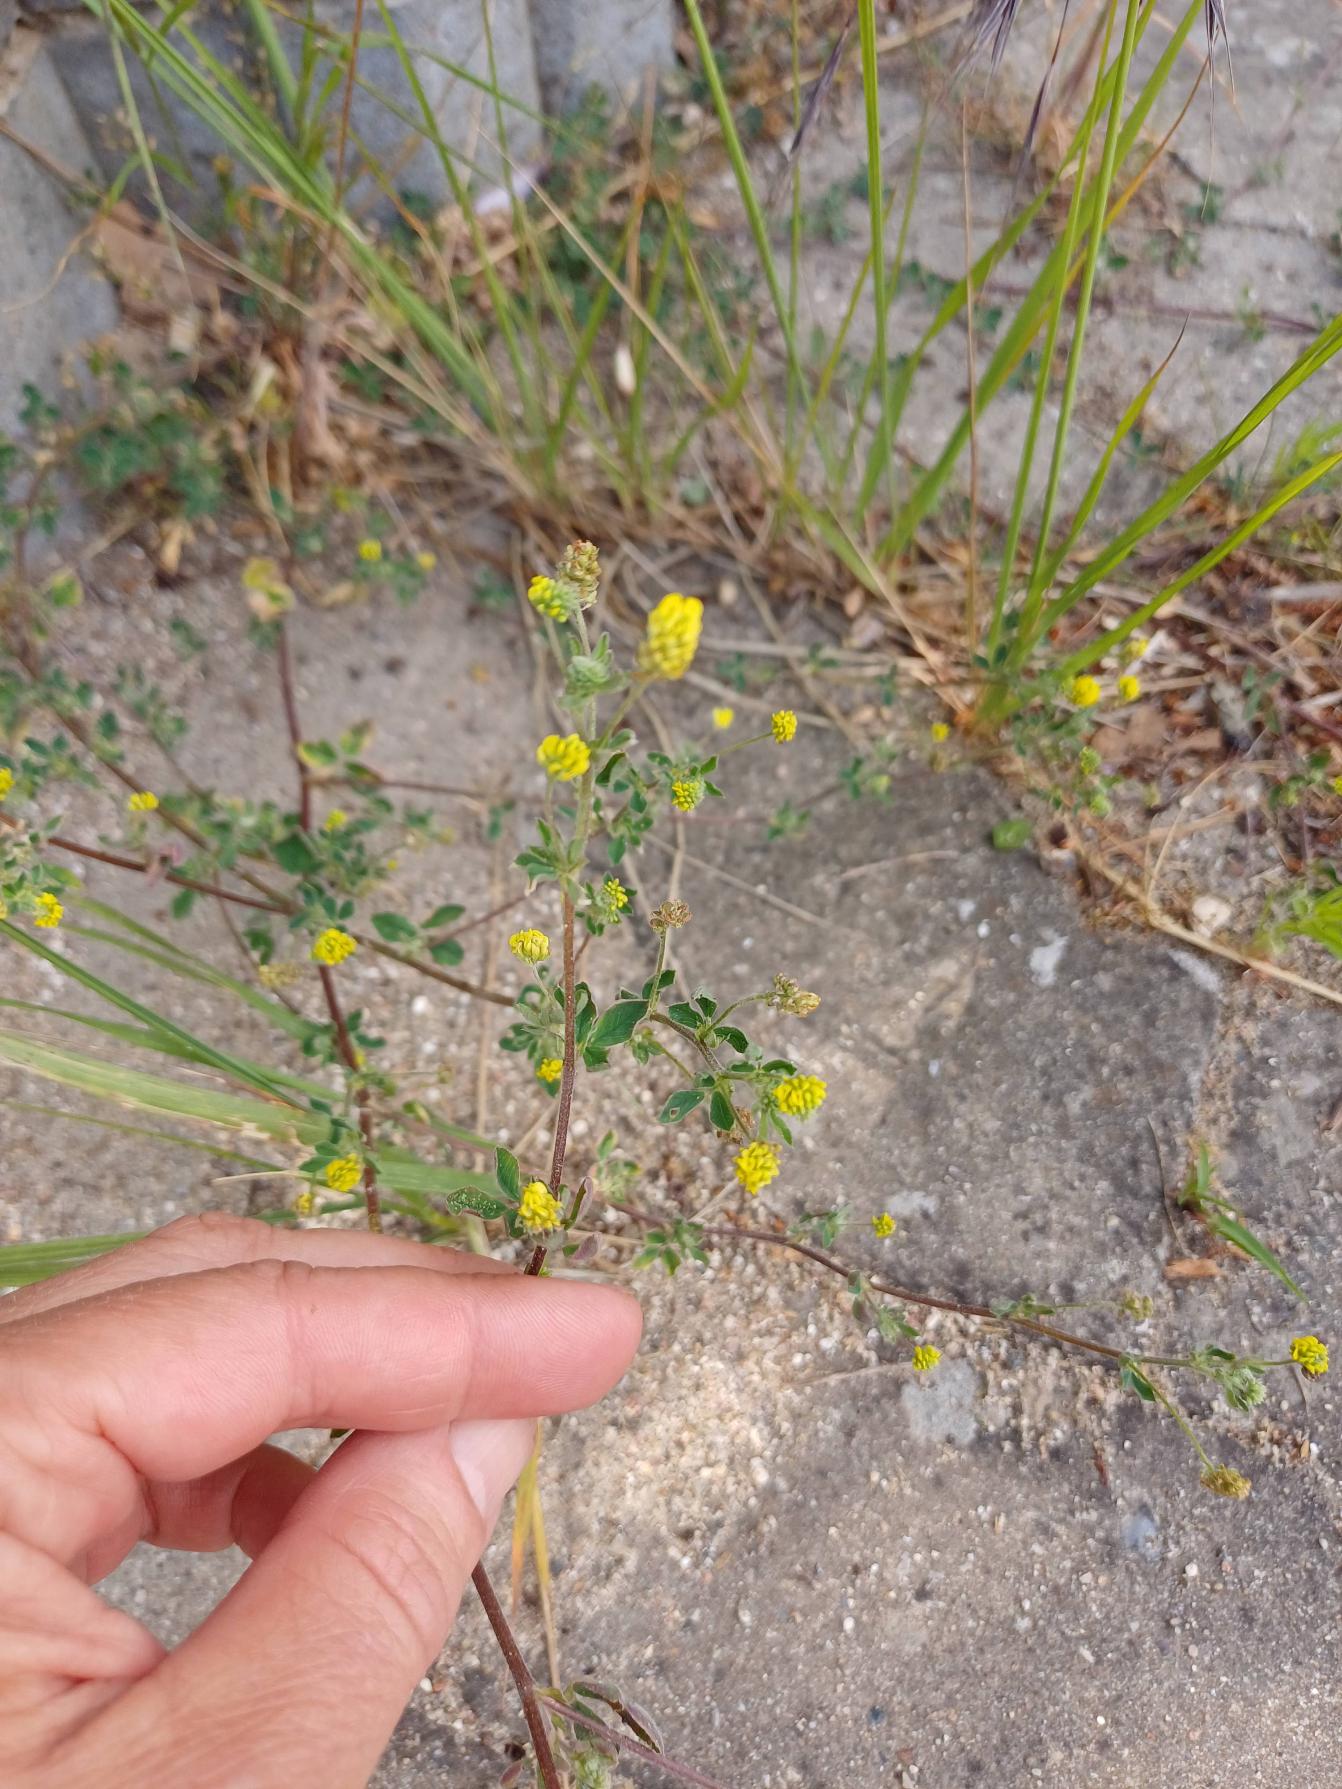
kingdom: Plantae
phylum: Tracheophyta
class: Magnoliopsida
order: Fabales
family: Fabaceae
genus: Medicago
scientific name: Medicago lupulina
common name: Humle-sneglebælg
